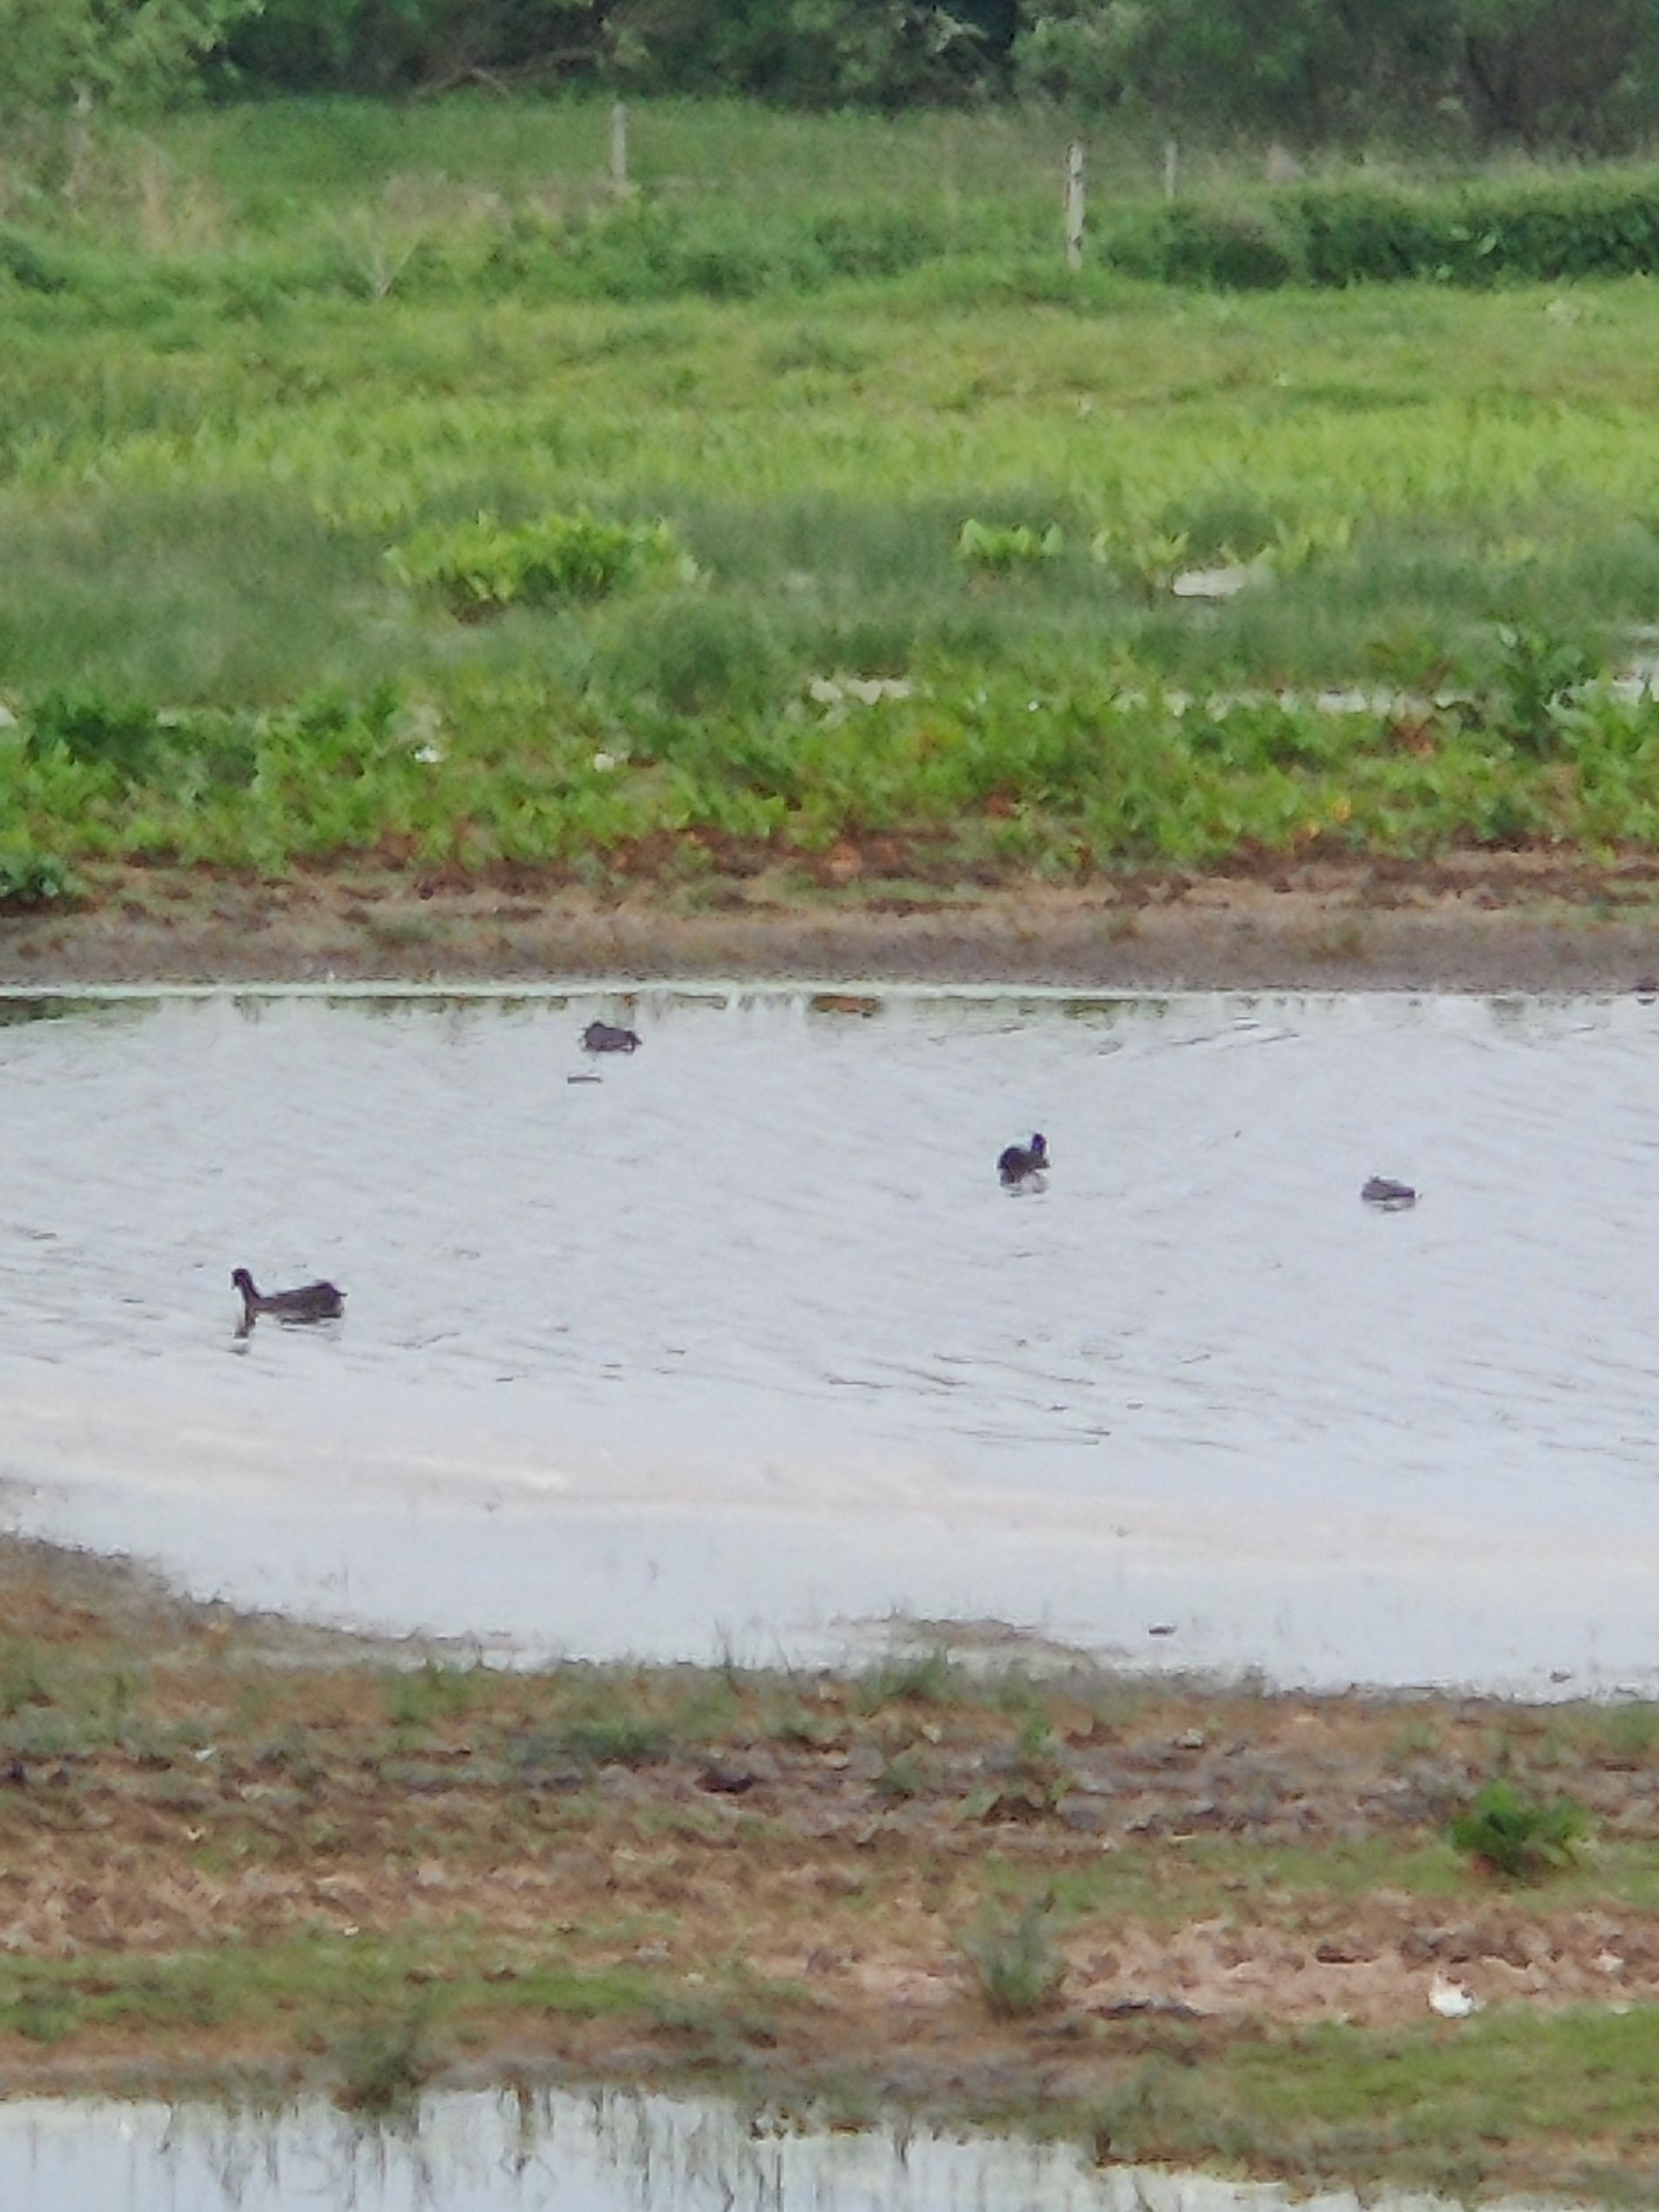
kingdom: Animalia
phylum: Chordata
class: Aves
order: Gruiformes
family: Rallidae
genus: Fulica
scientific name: Fulica atra
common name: Blishøne
